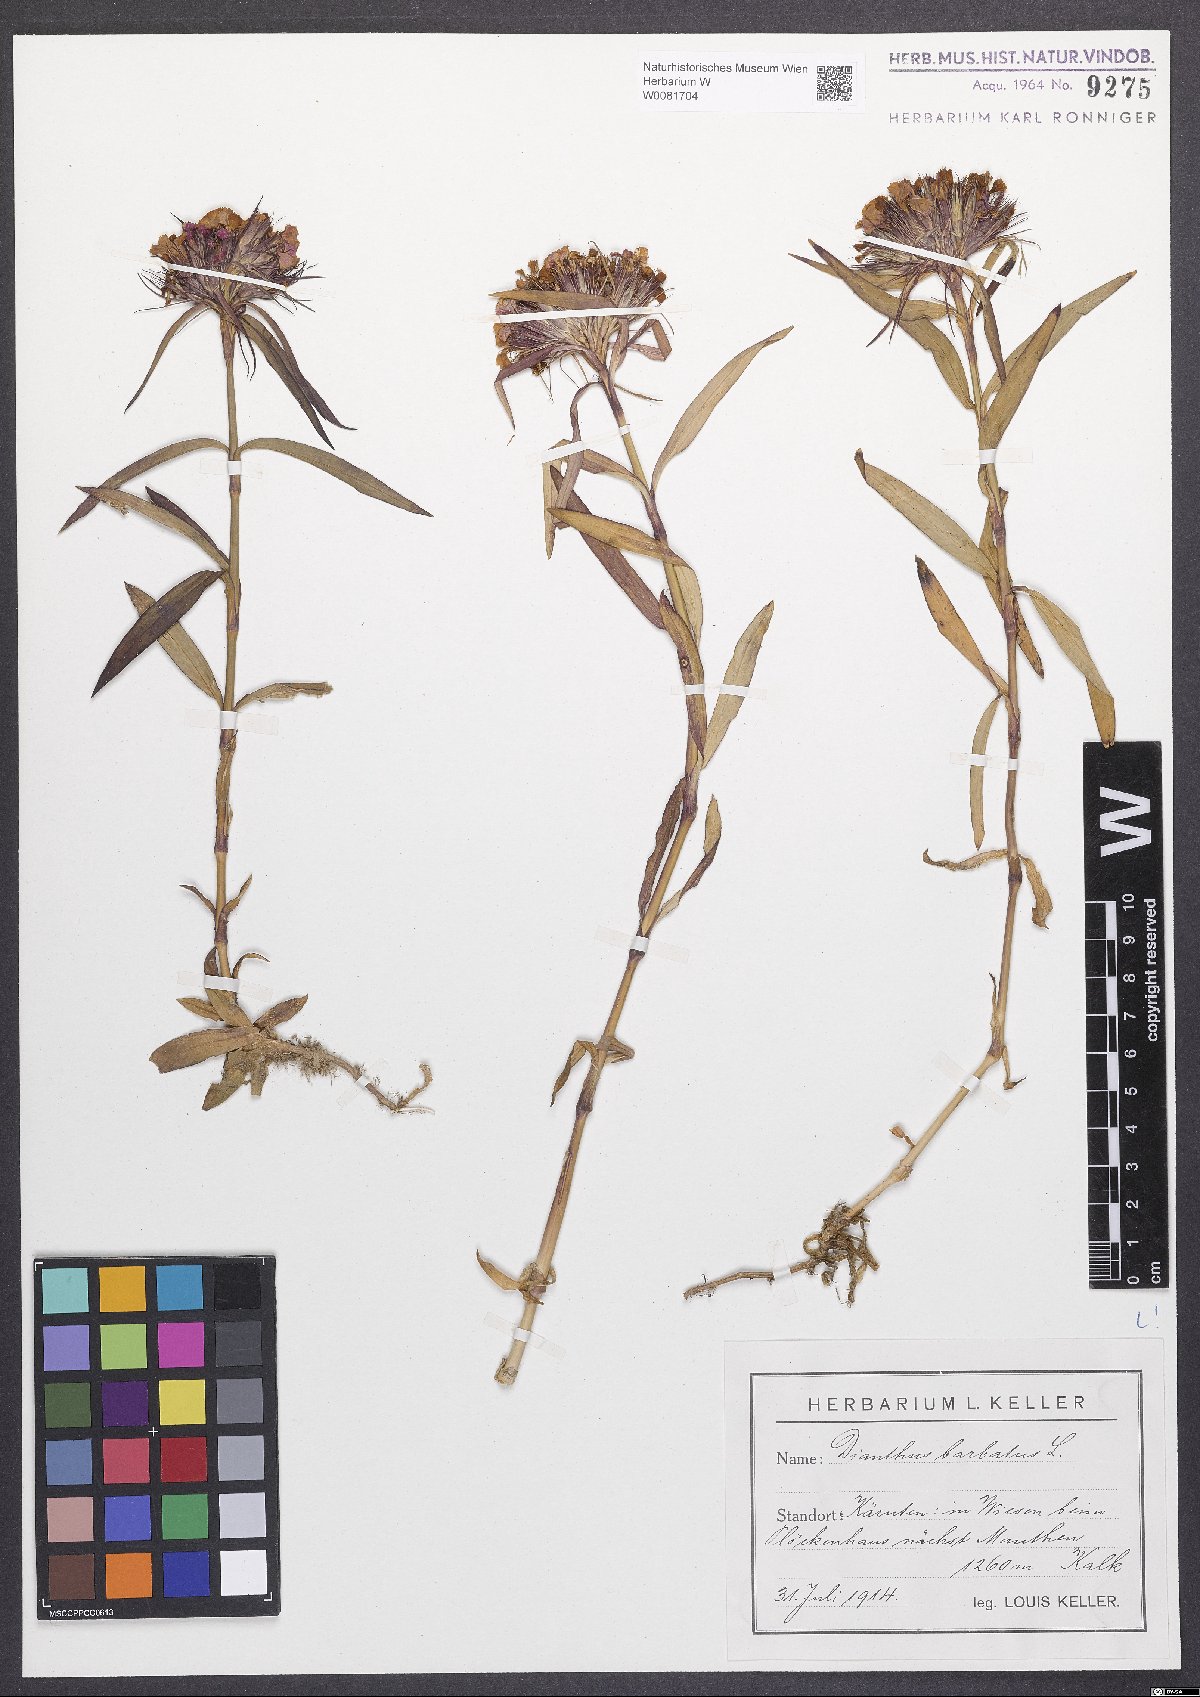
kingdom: Plantae
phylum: Tracheophyta
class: Magnoliopsida
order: Caryophyllales
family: Caryophyllaceae
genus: Dianthus
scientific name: Dianthus barbatus
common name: Sweet-william
